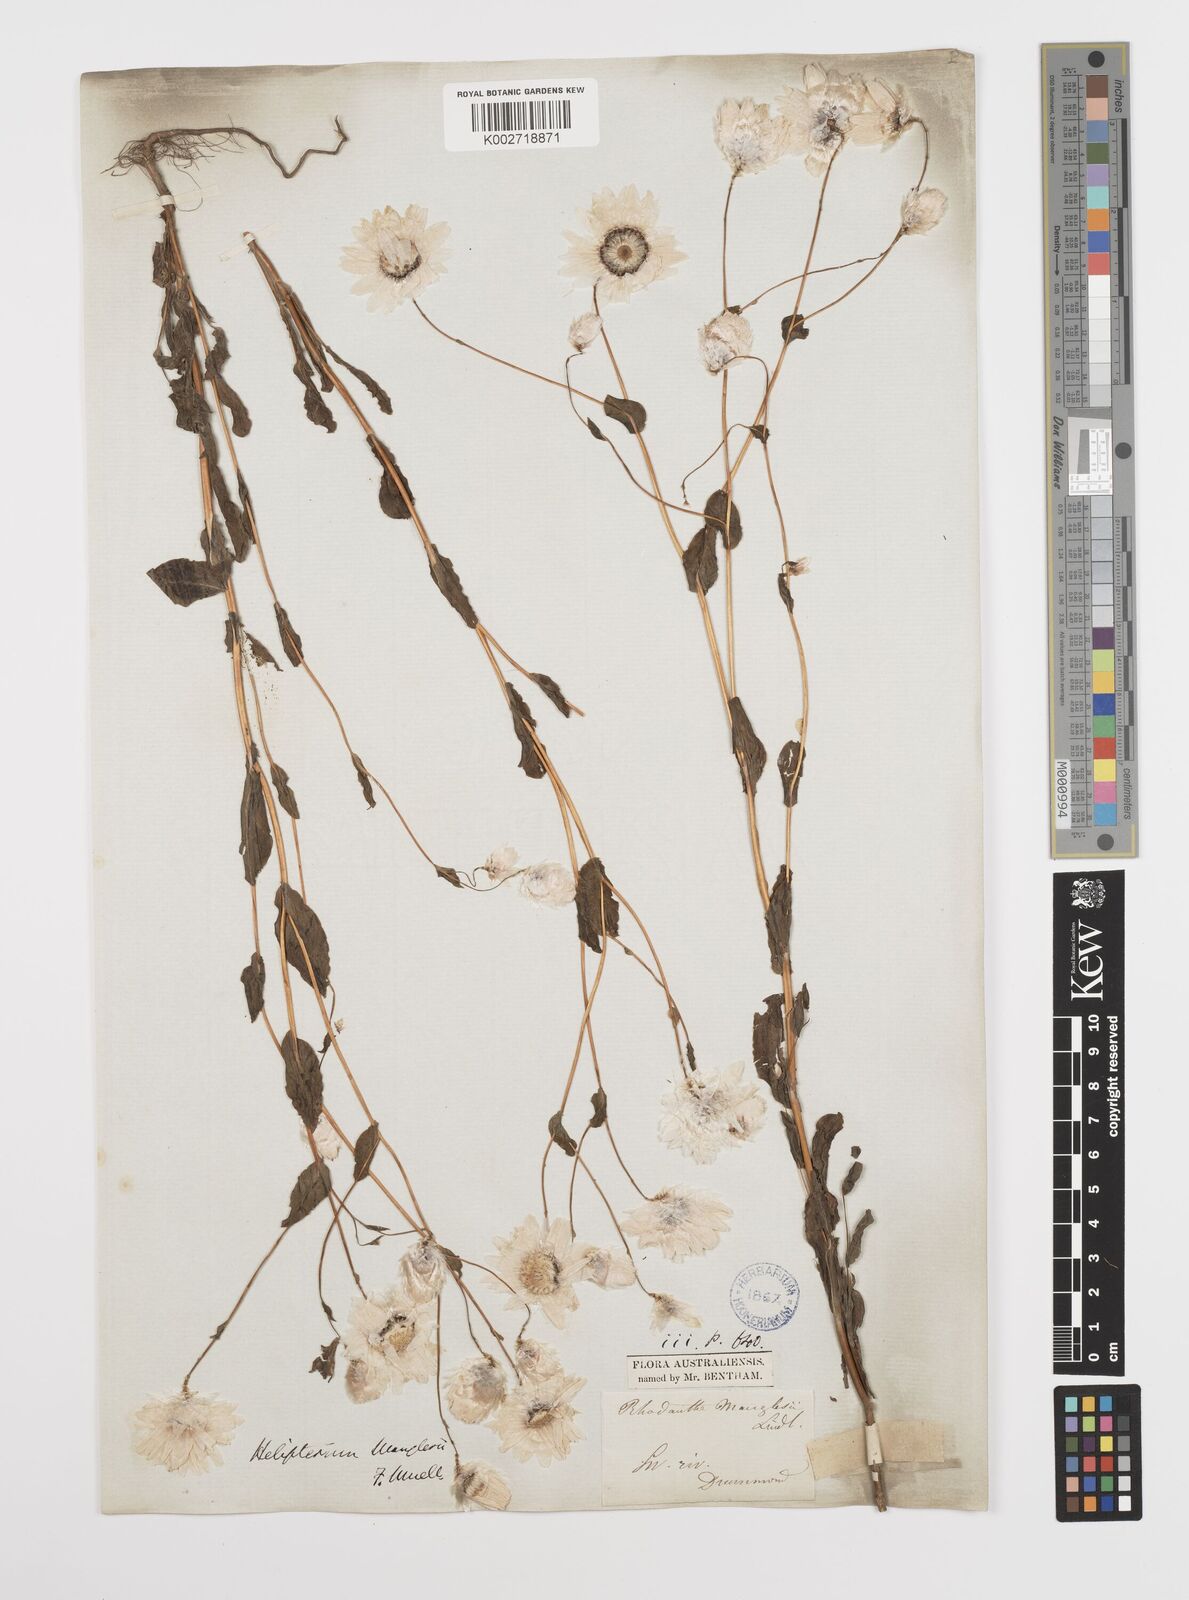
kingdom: Plantae
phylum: Tracheophyta
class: Magnoliopsida
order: Asterales
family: Asteraceae
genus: Rhodanthe
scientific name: Rhodanthe manglesii
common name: Pink sunray
